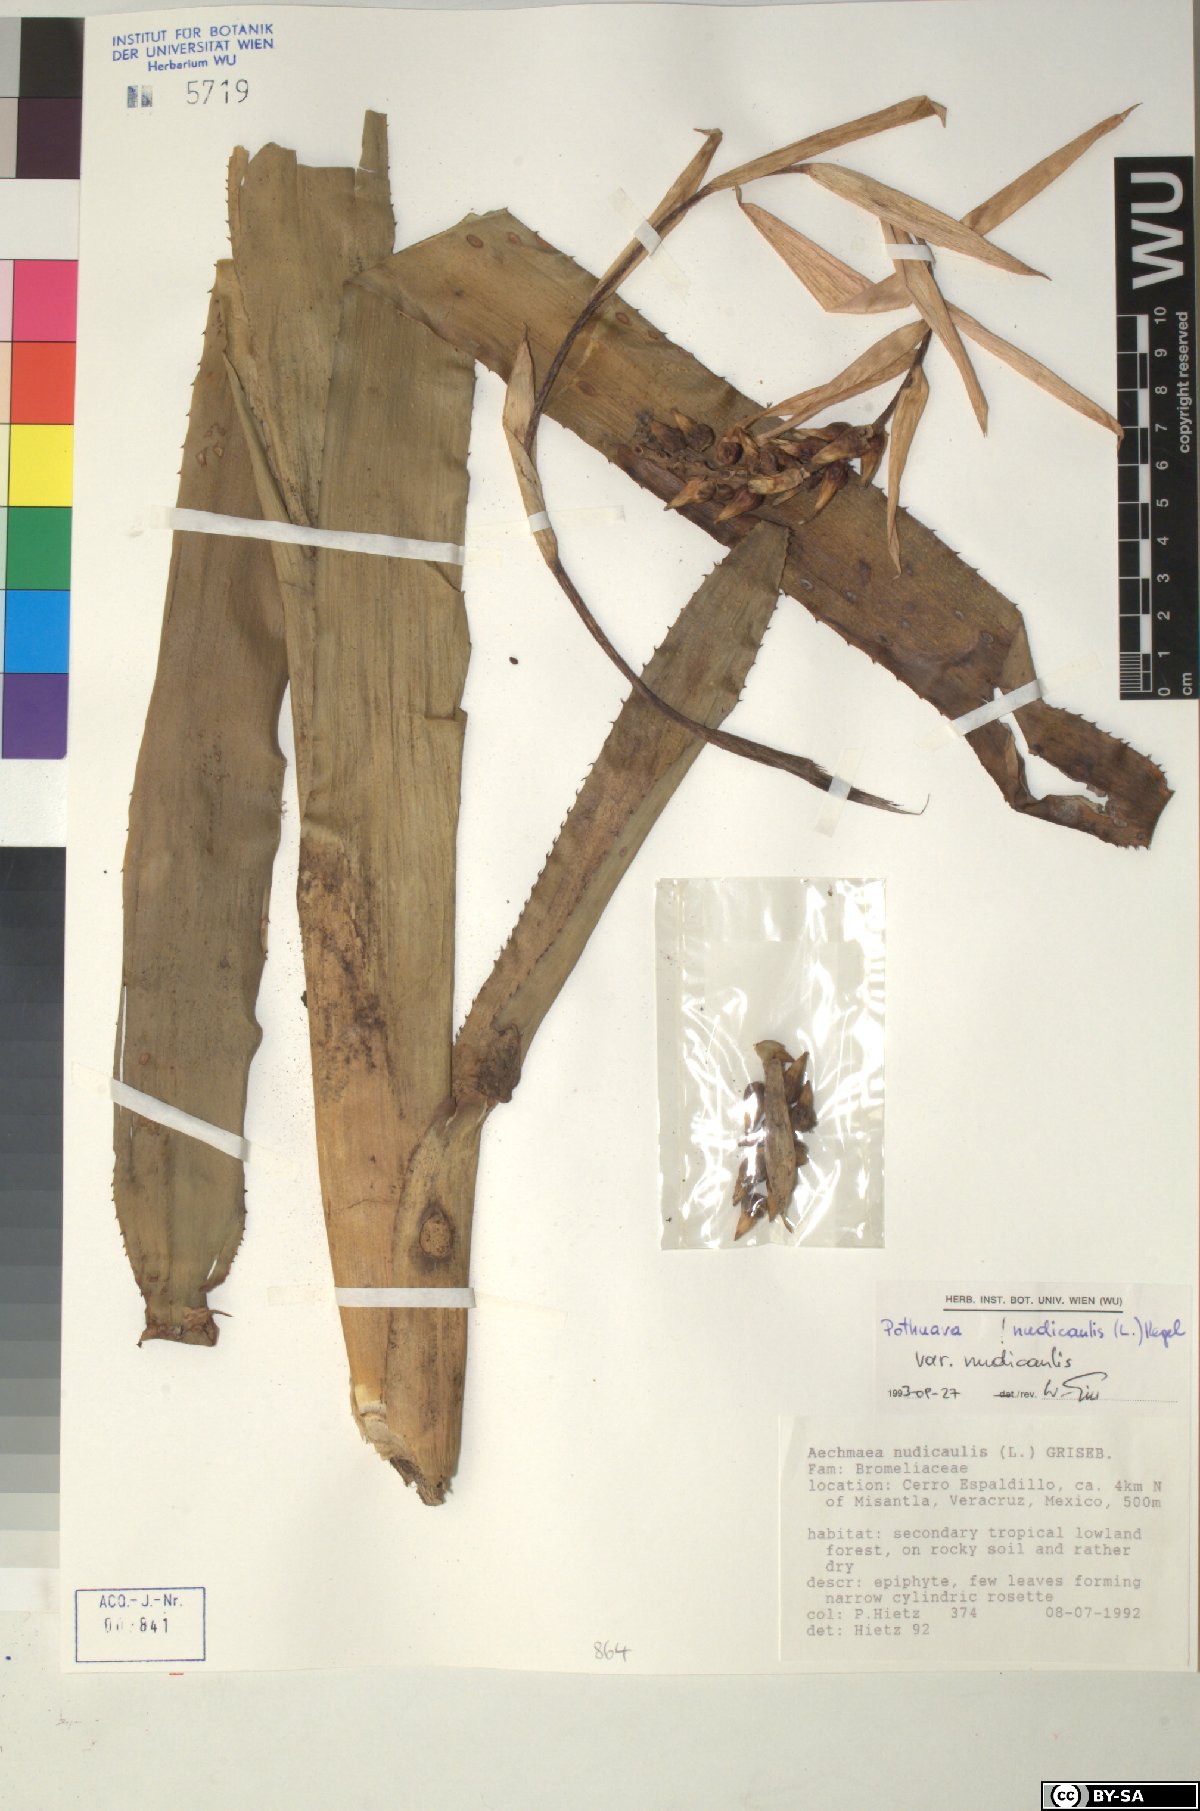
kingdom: Plantae
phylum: Tracheophyta
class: Liliopsida
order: Poales
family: Bromeliaceae
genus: Aechmea
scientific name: Aechmea nudicaulis
